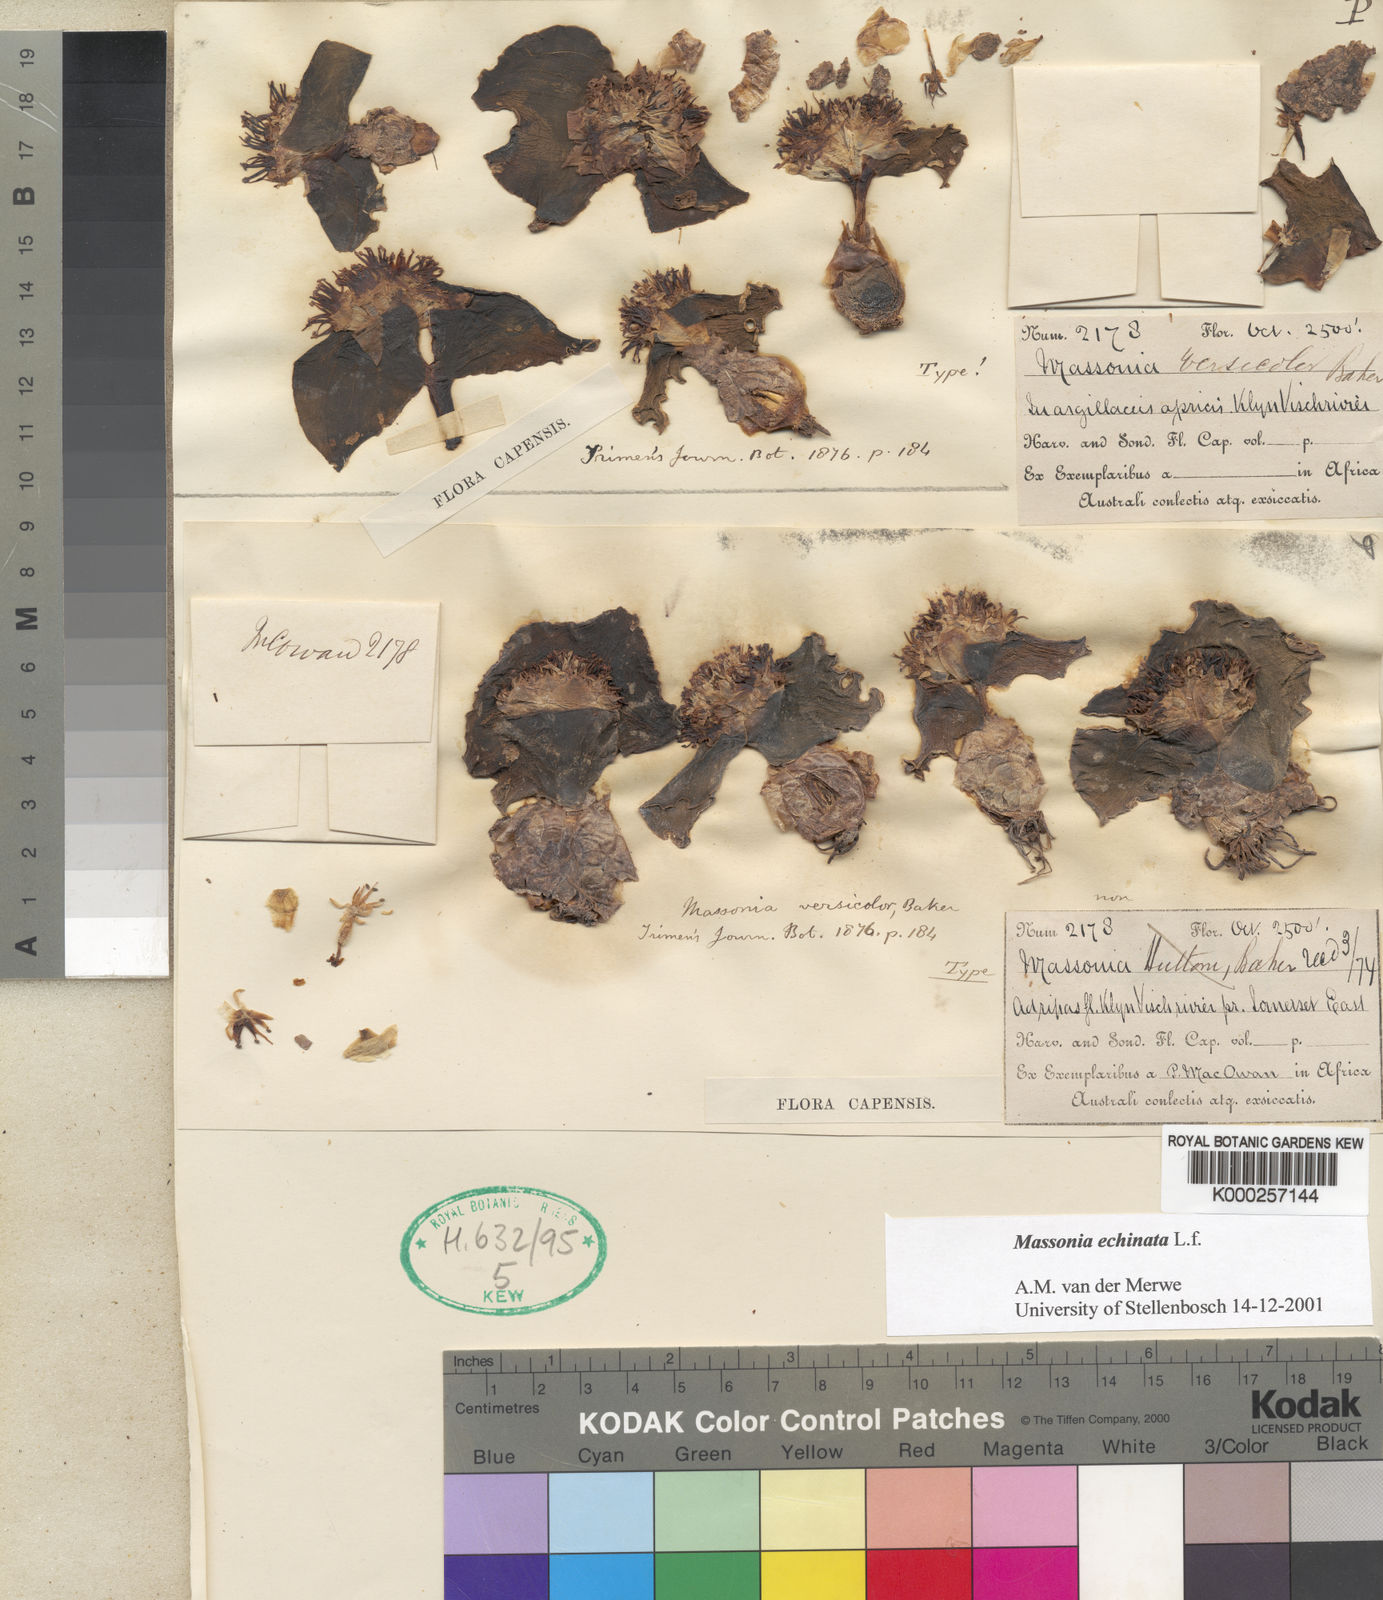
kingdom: Plantae
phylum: Tracheophyta
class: Liliopsida
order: Asparagales
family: Asparagaceae
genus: Massonia
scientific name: Massonia echinata
